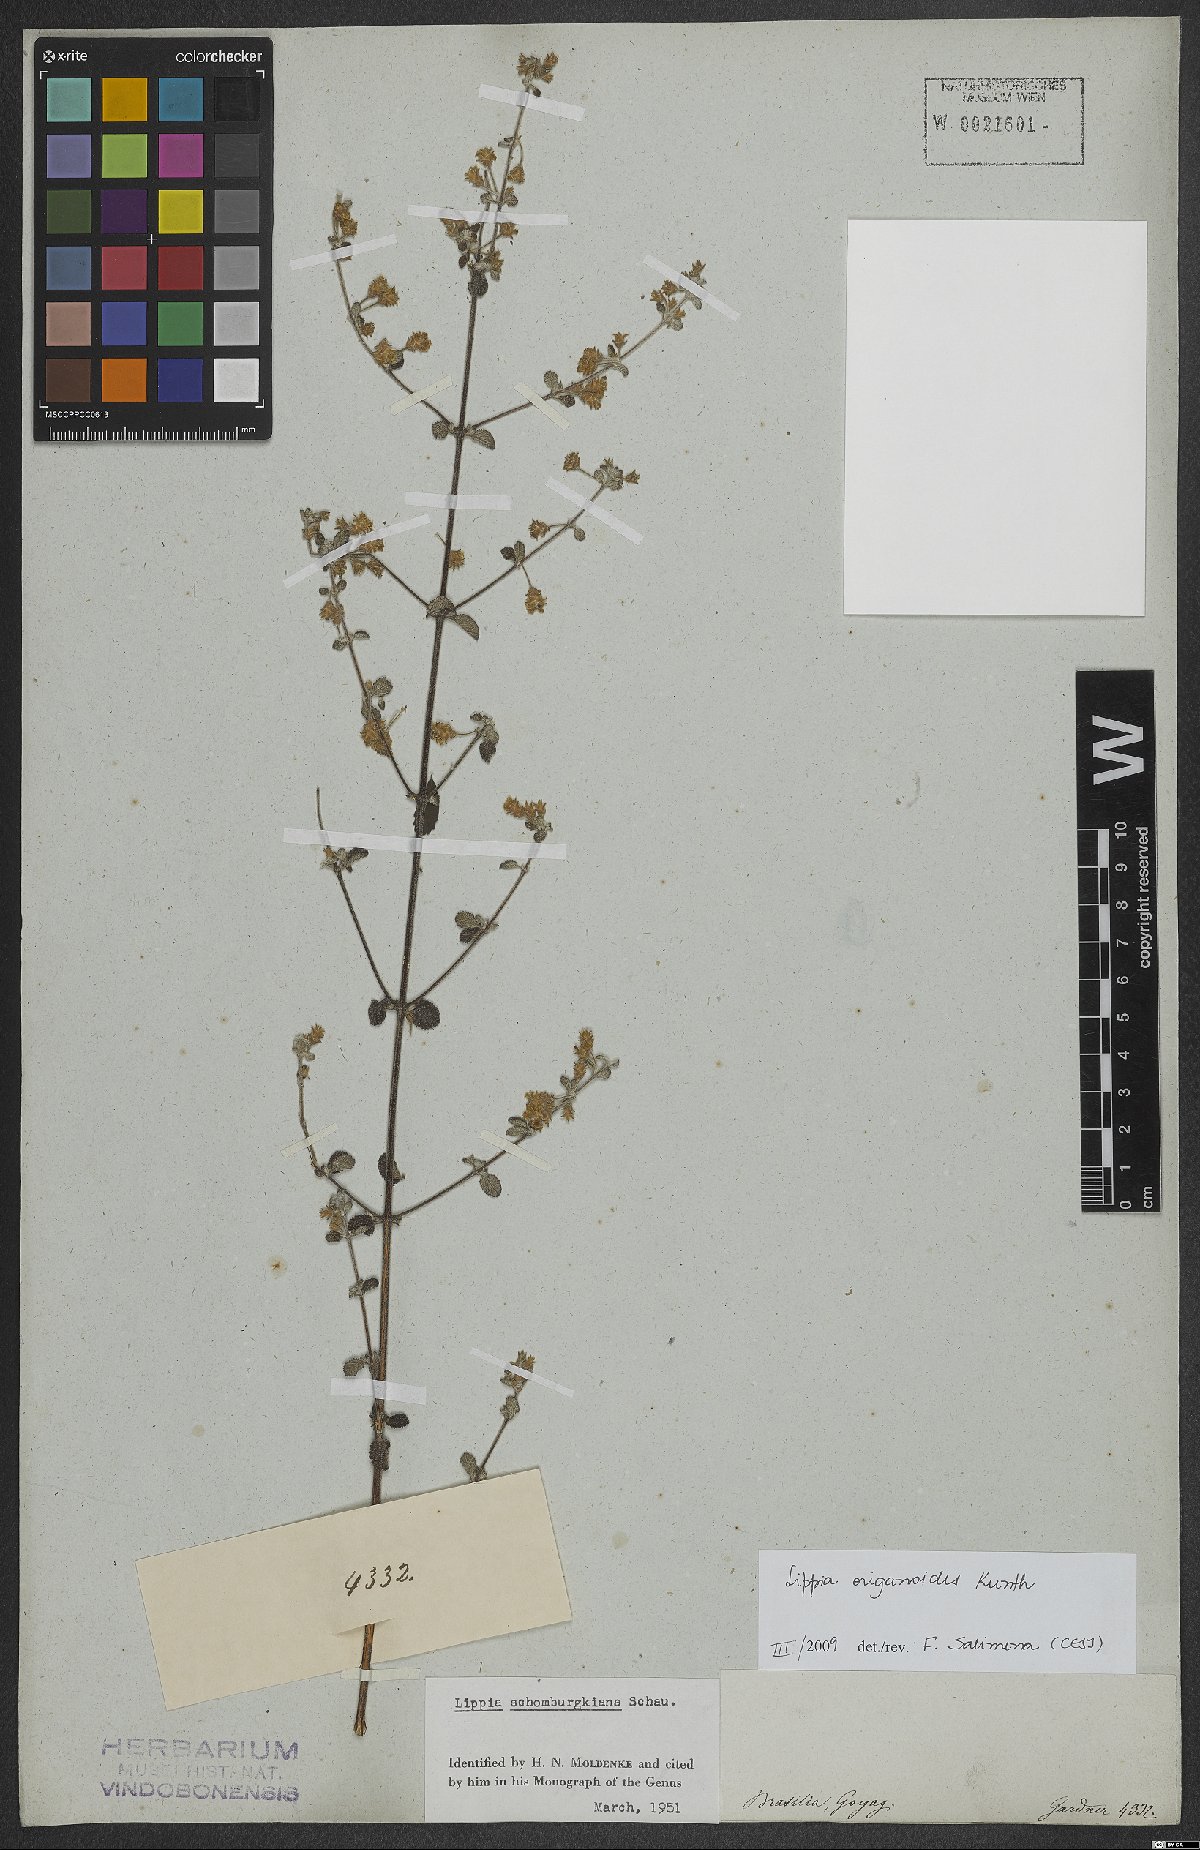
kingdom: Plantae
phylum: Tracheophyta
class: Magnoliopsida
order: Lamiales
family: Verbenaceae
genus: Lippia
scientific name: Lippia origanoides
